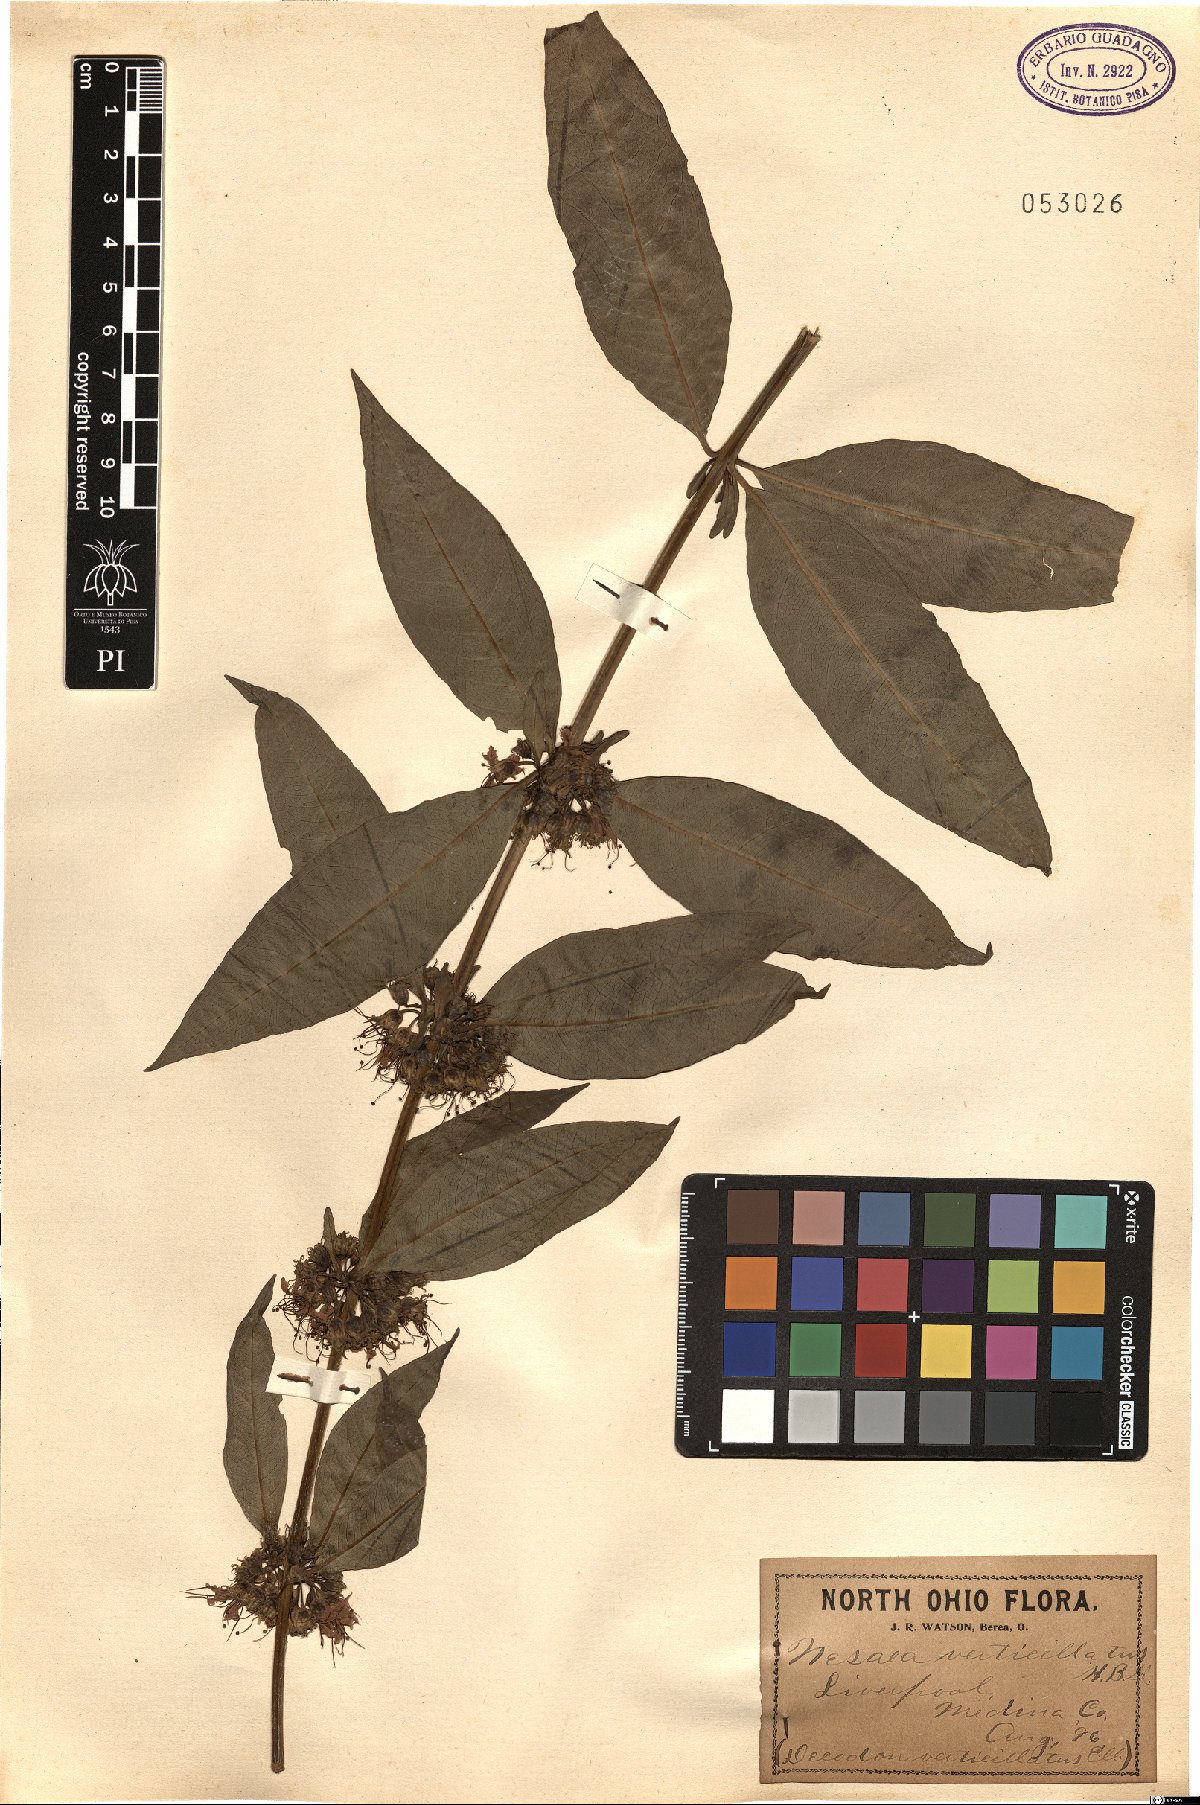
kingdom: Plantae
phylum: Tracheophyta
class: Magnoliopsida
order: Myrtales
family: Lythraceae
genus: Decodon
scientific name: Decodon verticillatus
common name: Hairy swamp loosestrife
